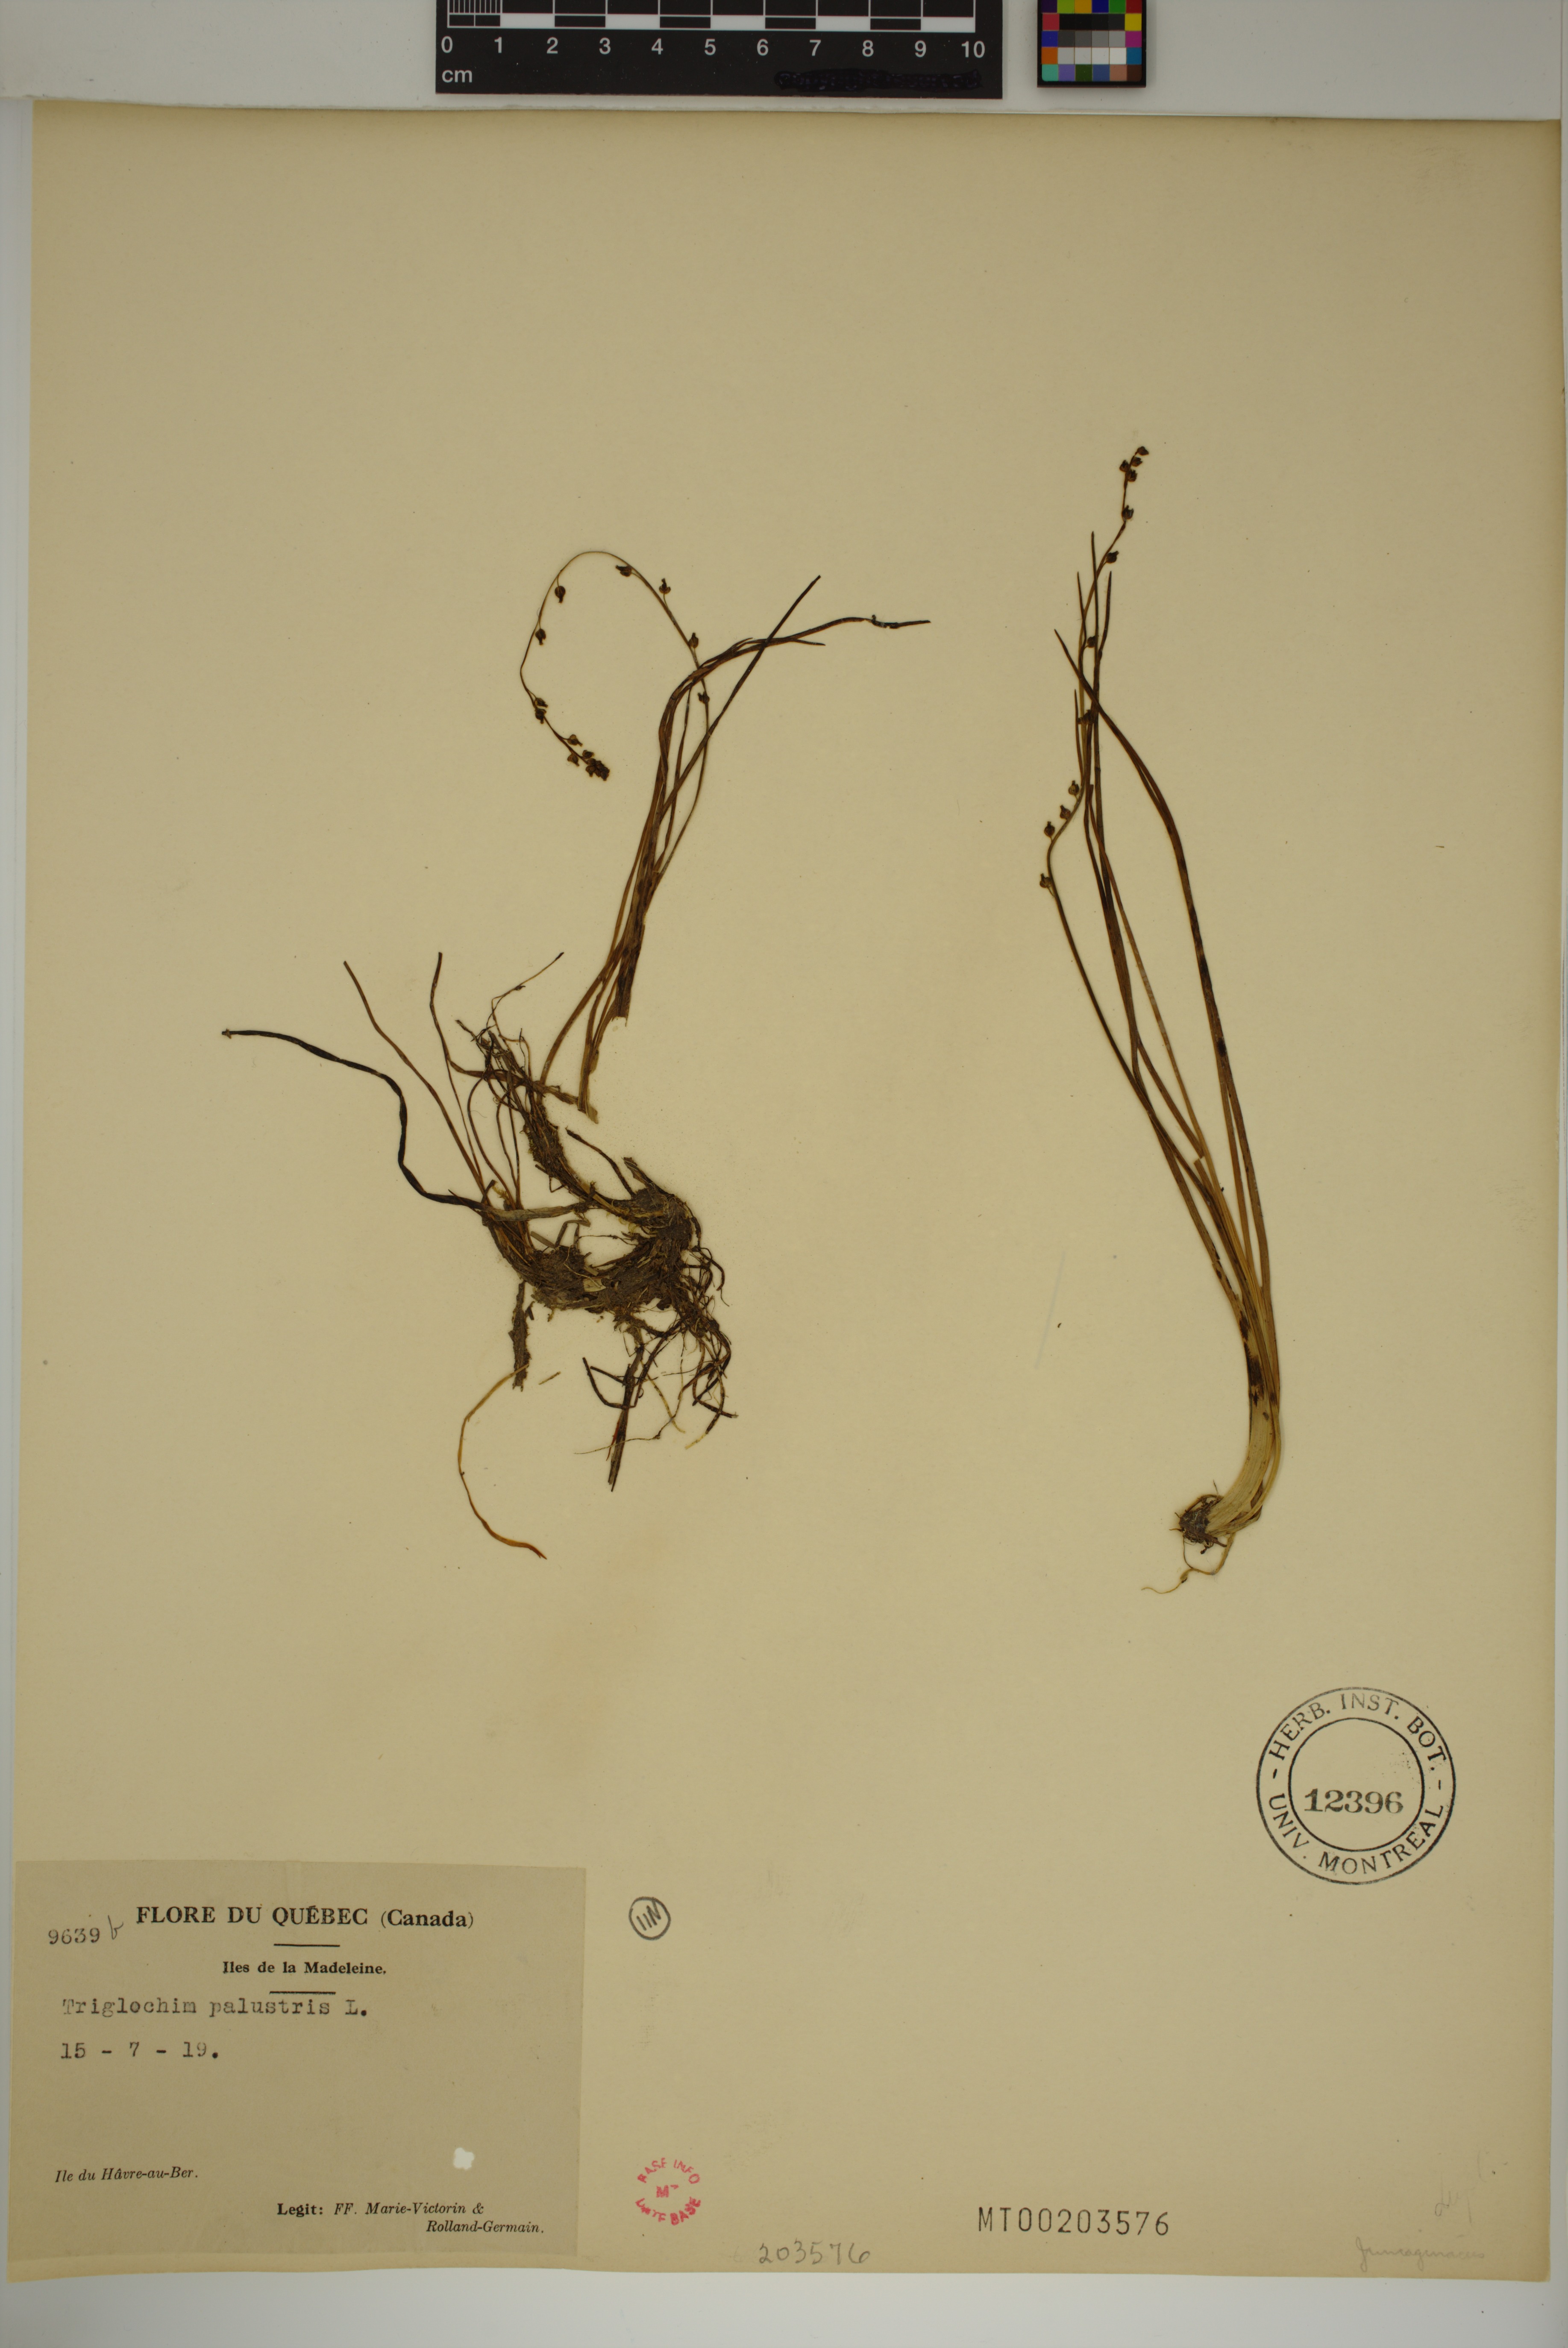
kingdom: Plantae
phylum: Tracheophyta
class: Liliopsida
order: Alismatales
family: Juncaginaceae
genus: Triglochin
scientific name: Triglochin palustris
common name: Marsh arrowgrass
